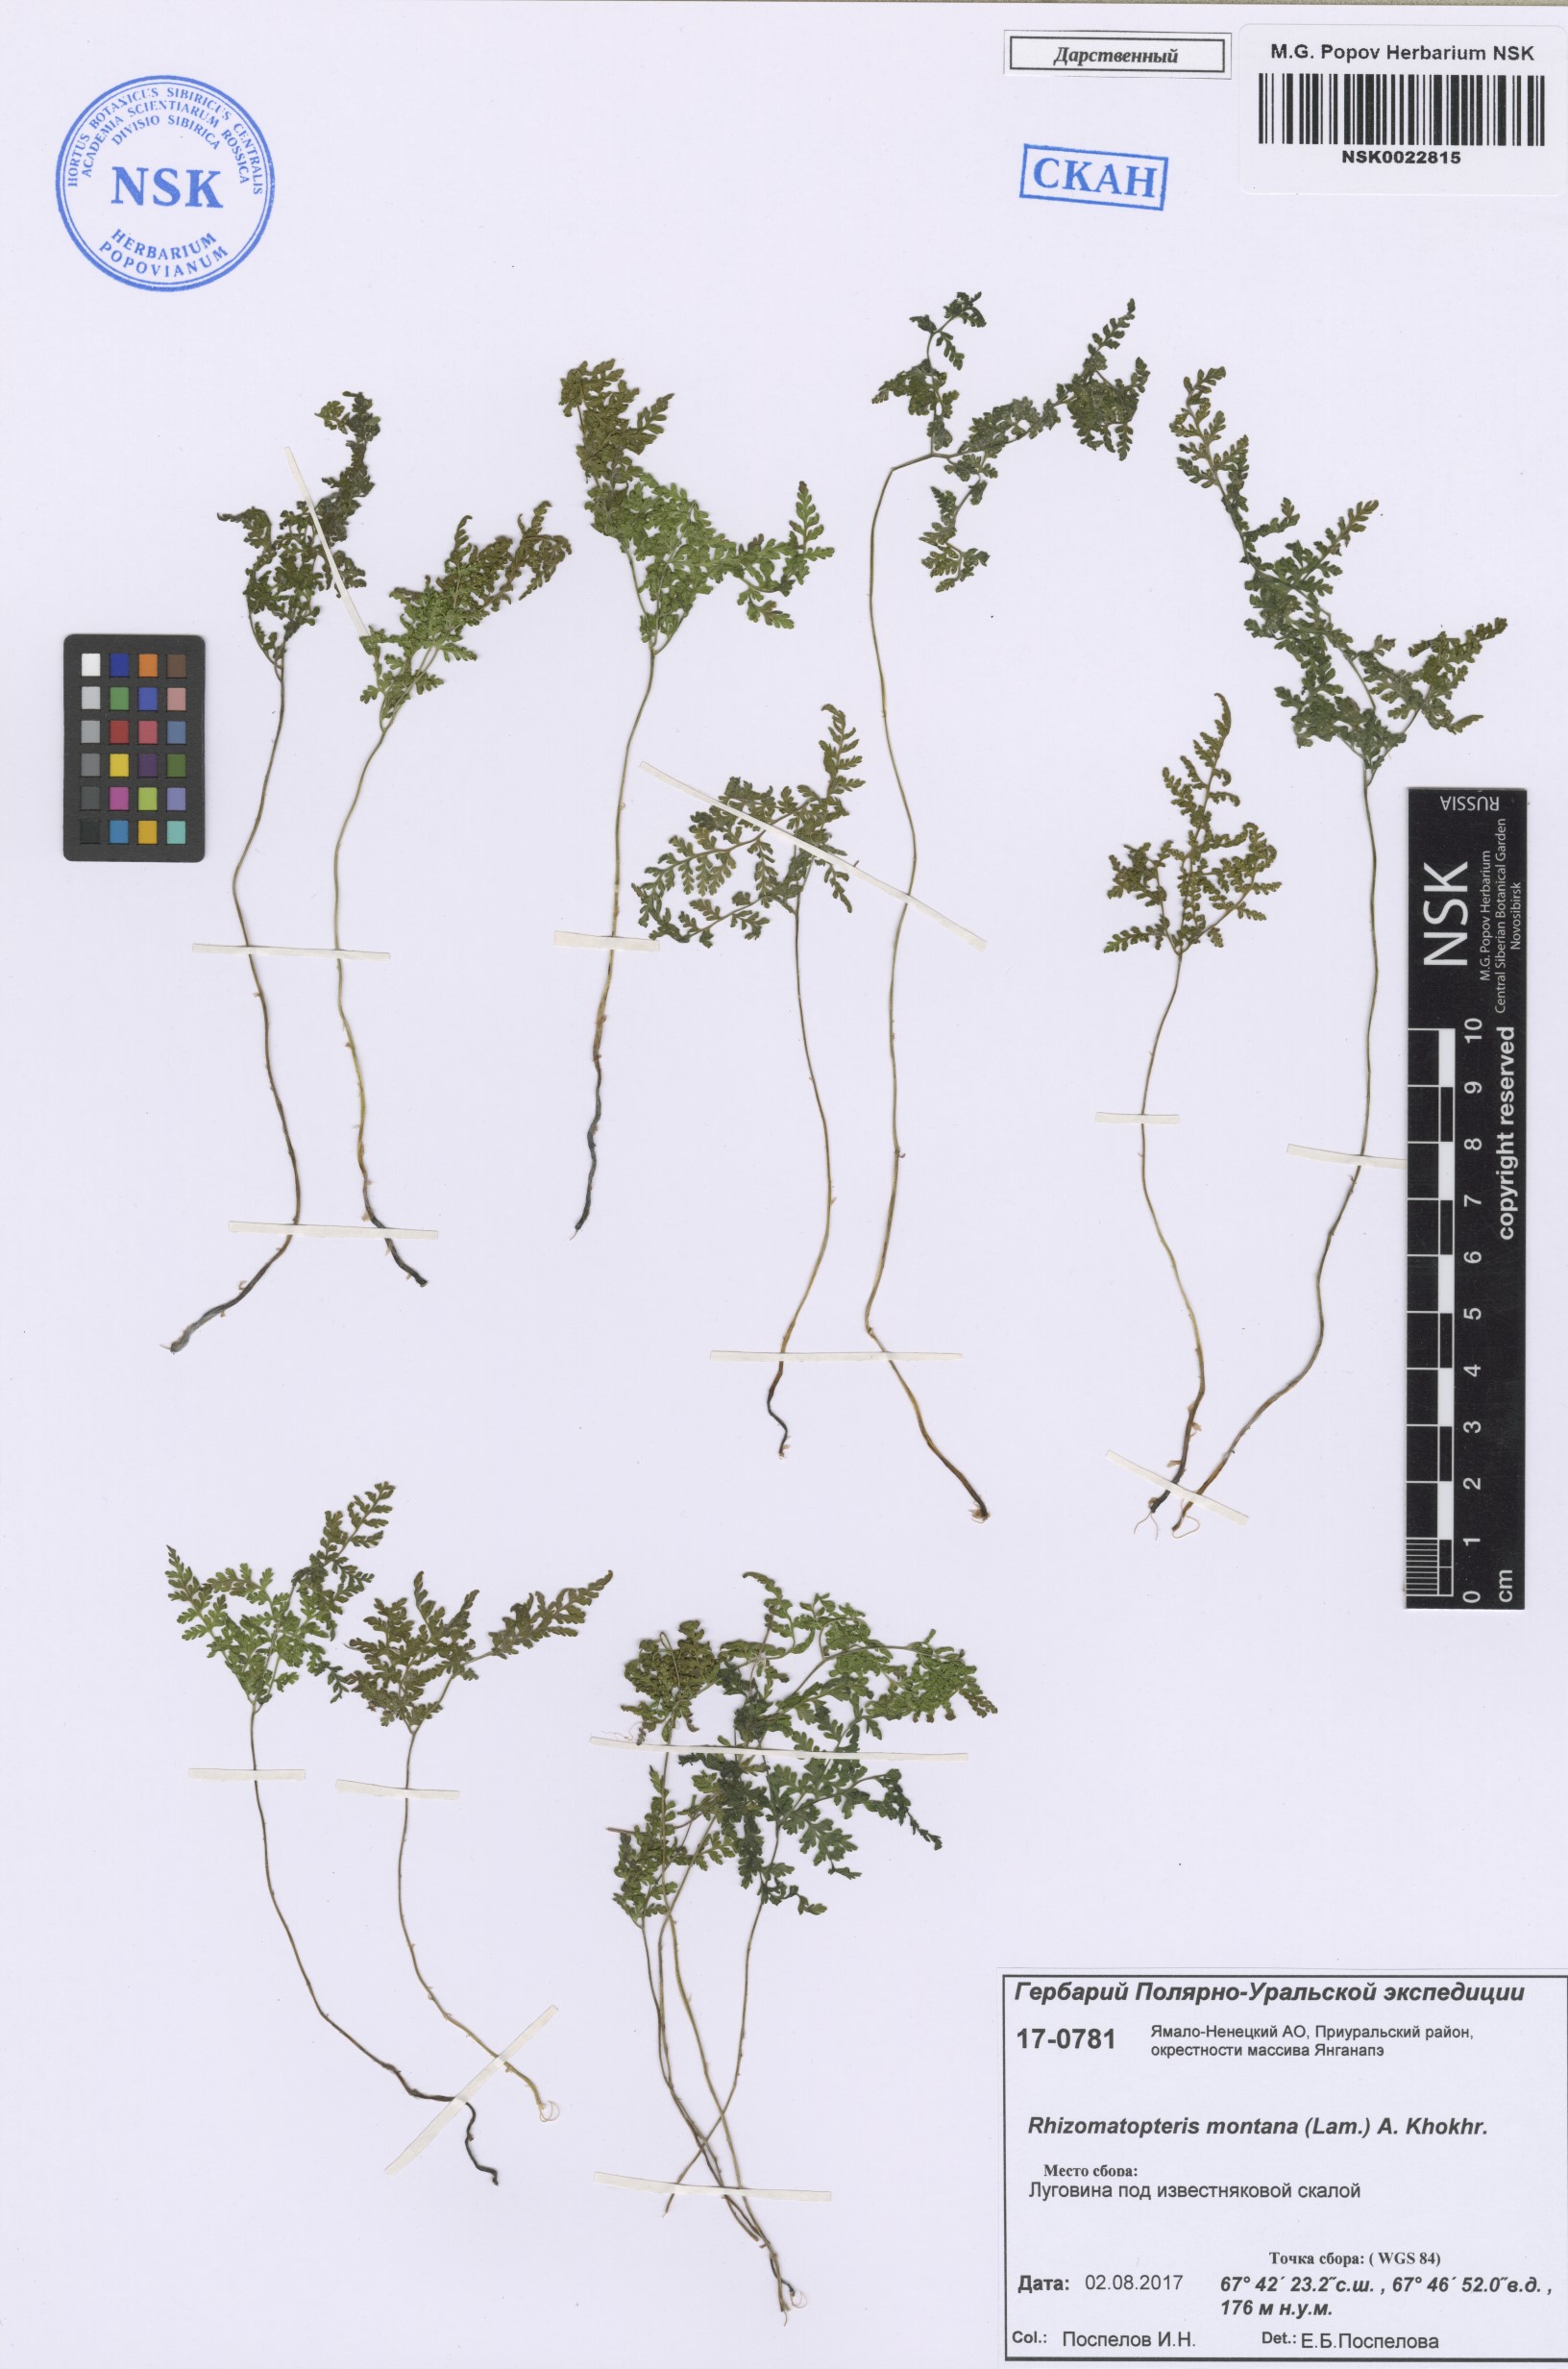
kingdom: Plantae
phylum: Tracheophyta
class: Polypodiopsida
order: Polypodiales
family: Cystopteridaceae
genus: Cystopteris
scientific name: Cystopteris montana
